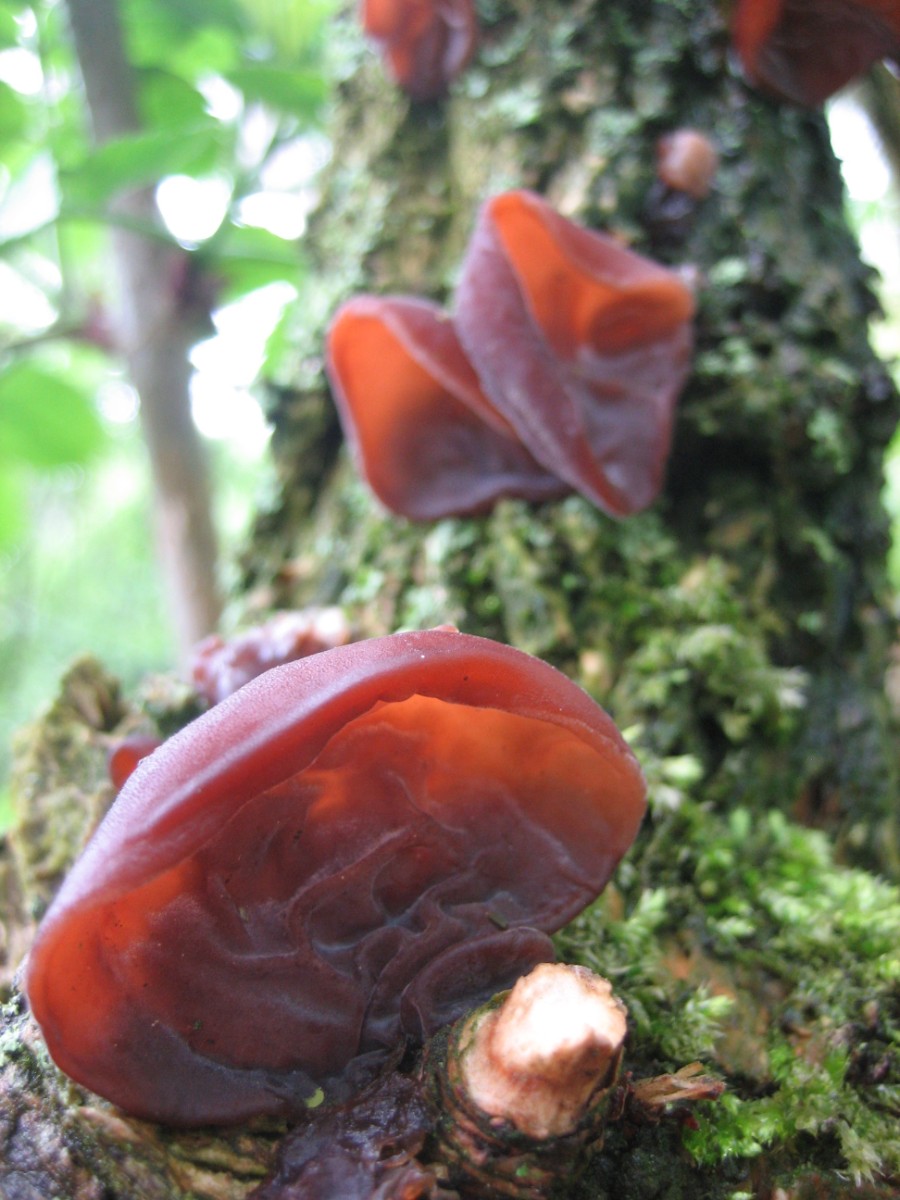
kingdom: Fungi
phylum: Basidiomycota
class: Agaricomycetes
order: Auriculariales
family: Auriculariaceae
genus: Auricularia
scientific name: Auricularia auricula-judae
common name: almindelig judasøre
